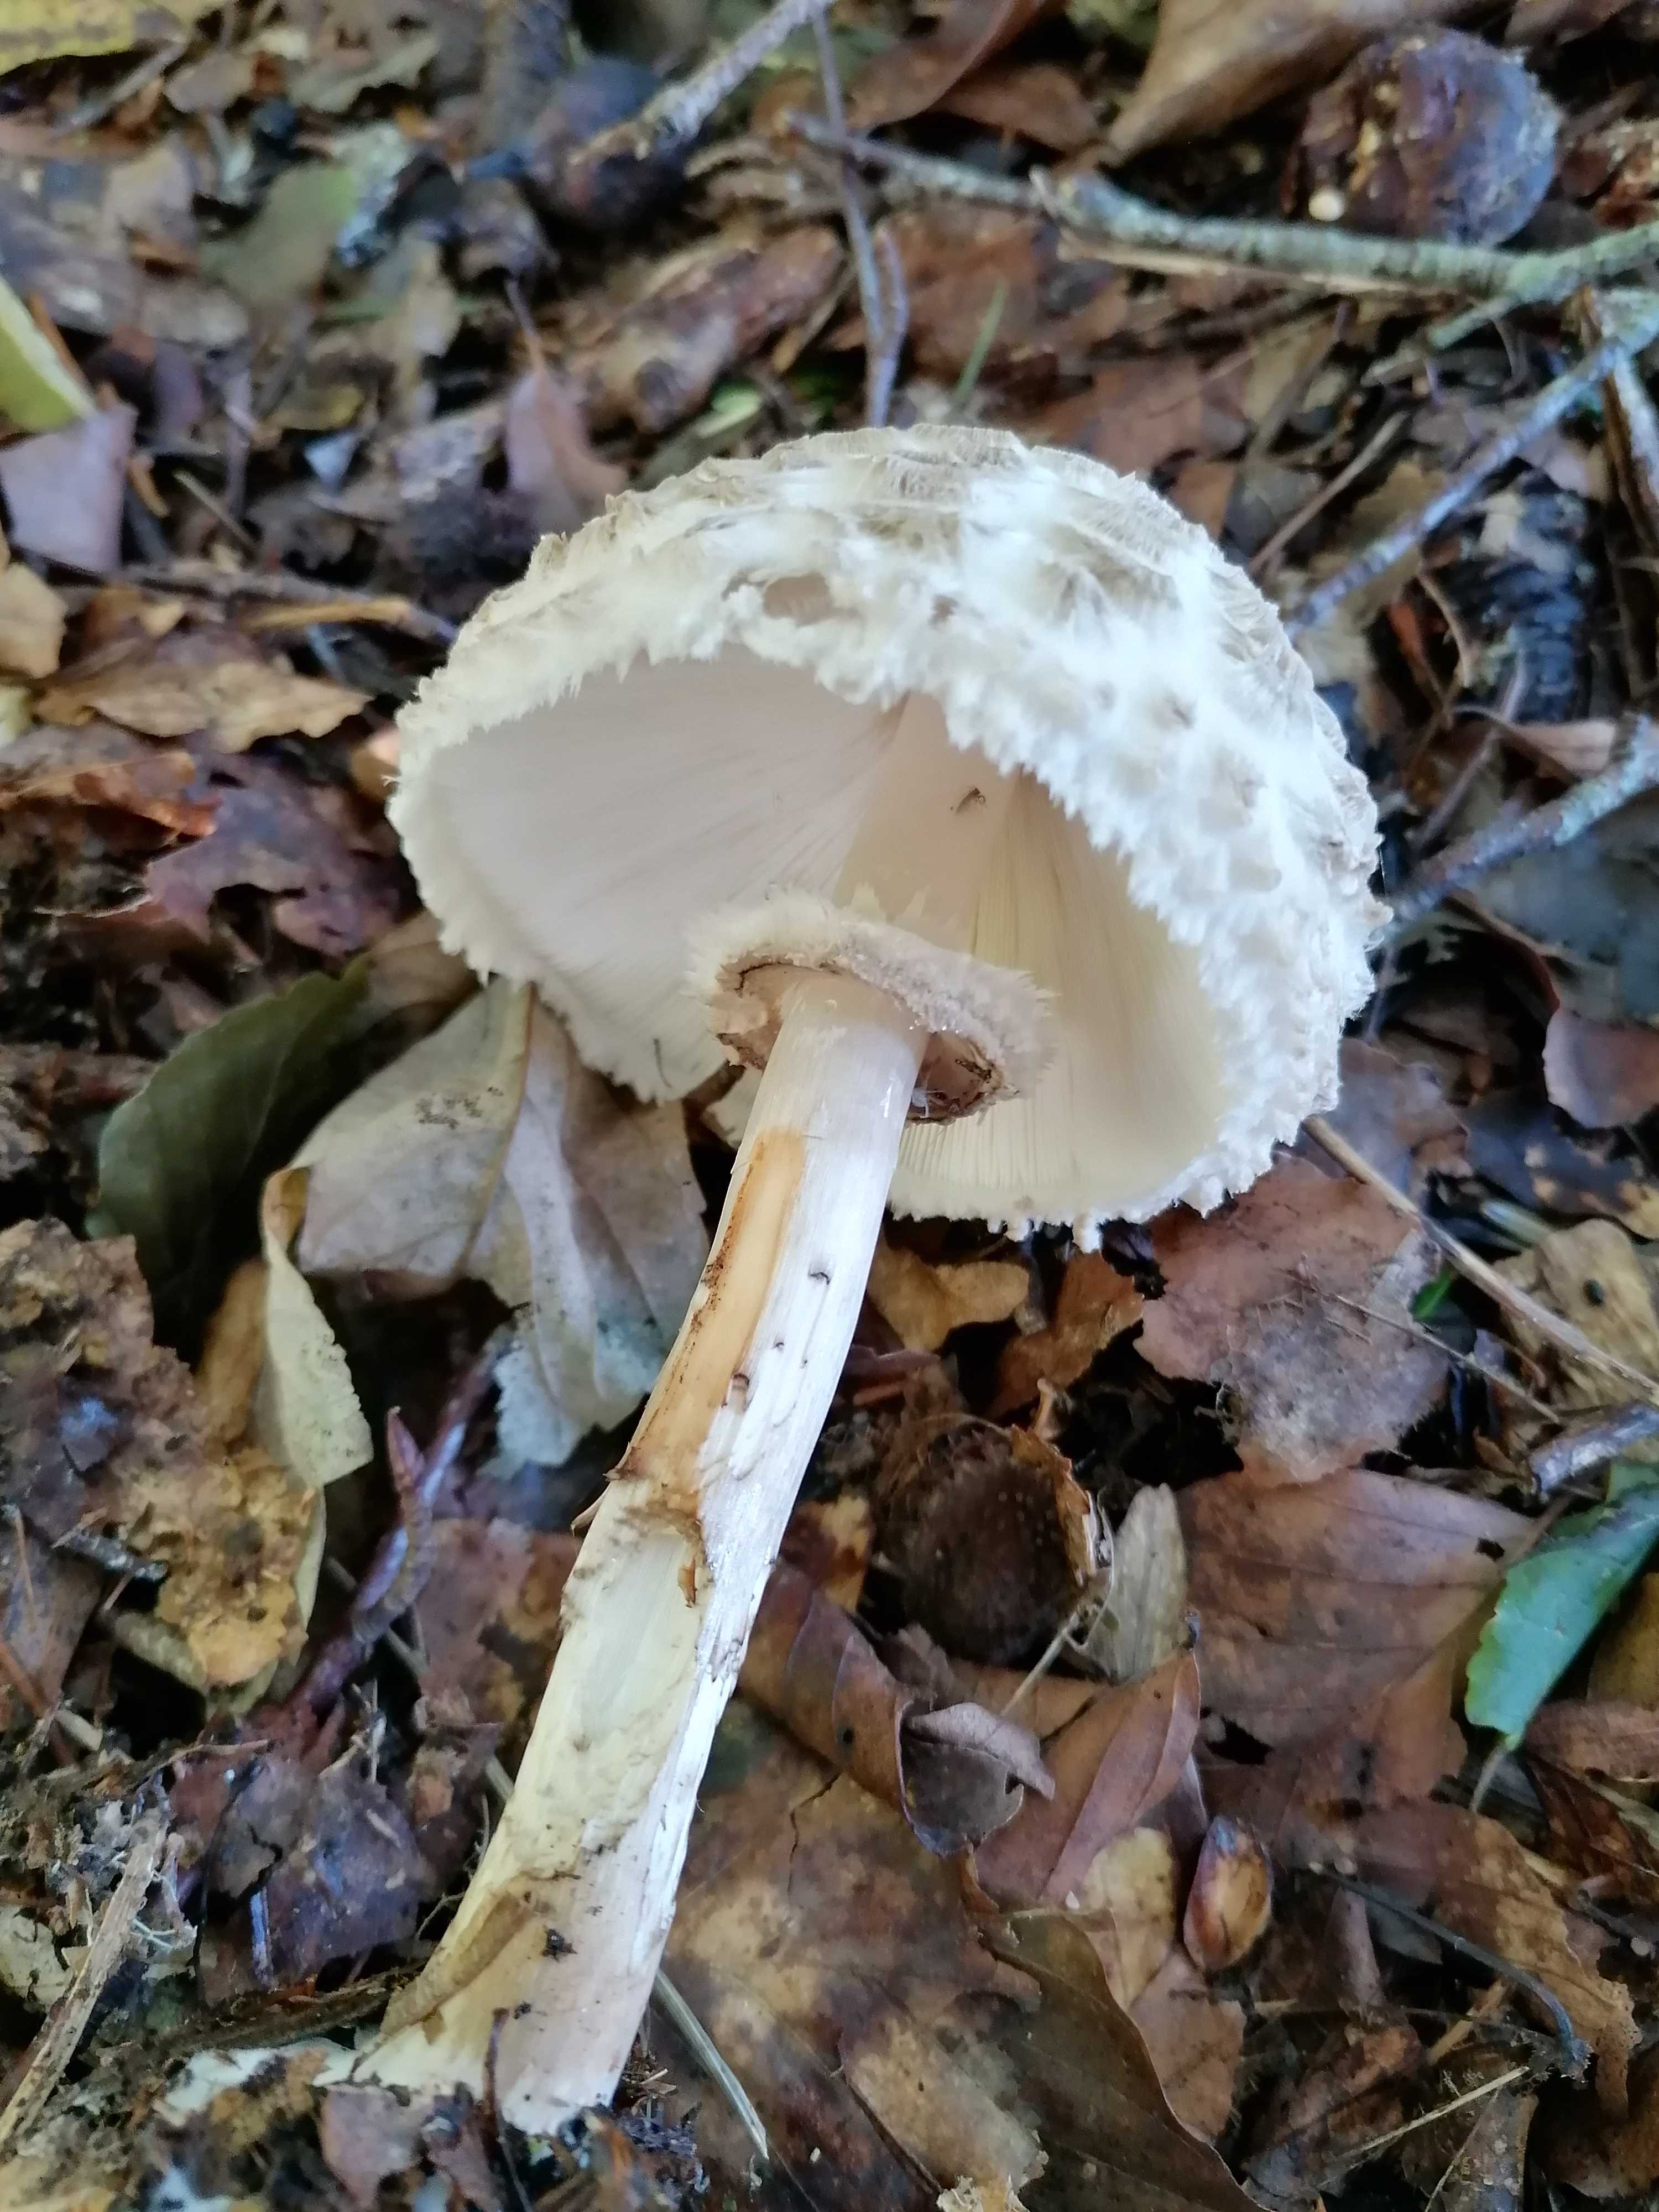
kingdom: Fungi
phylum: Basidiomycota
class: Agaricomycetes
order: Agaricales
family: Agaricaceae
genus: Chlorophyllum
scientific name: Chlorophyllum
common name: rabarberhat
